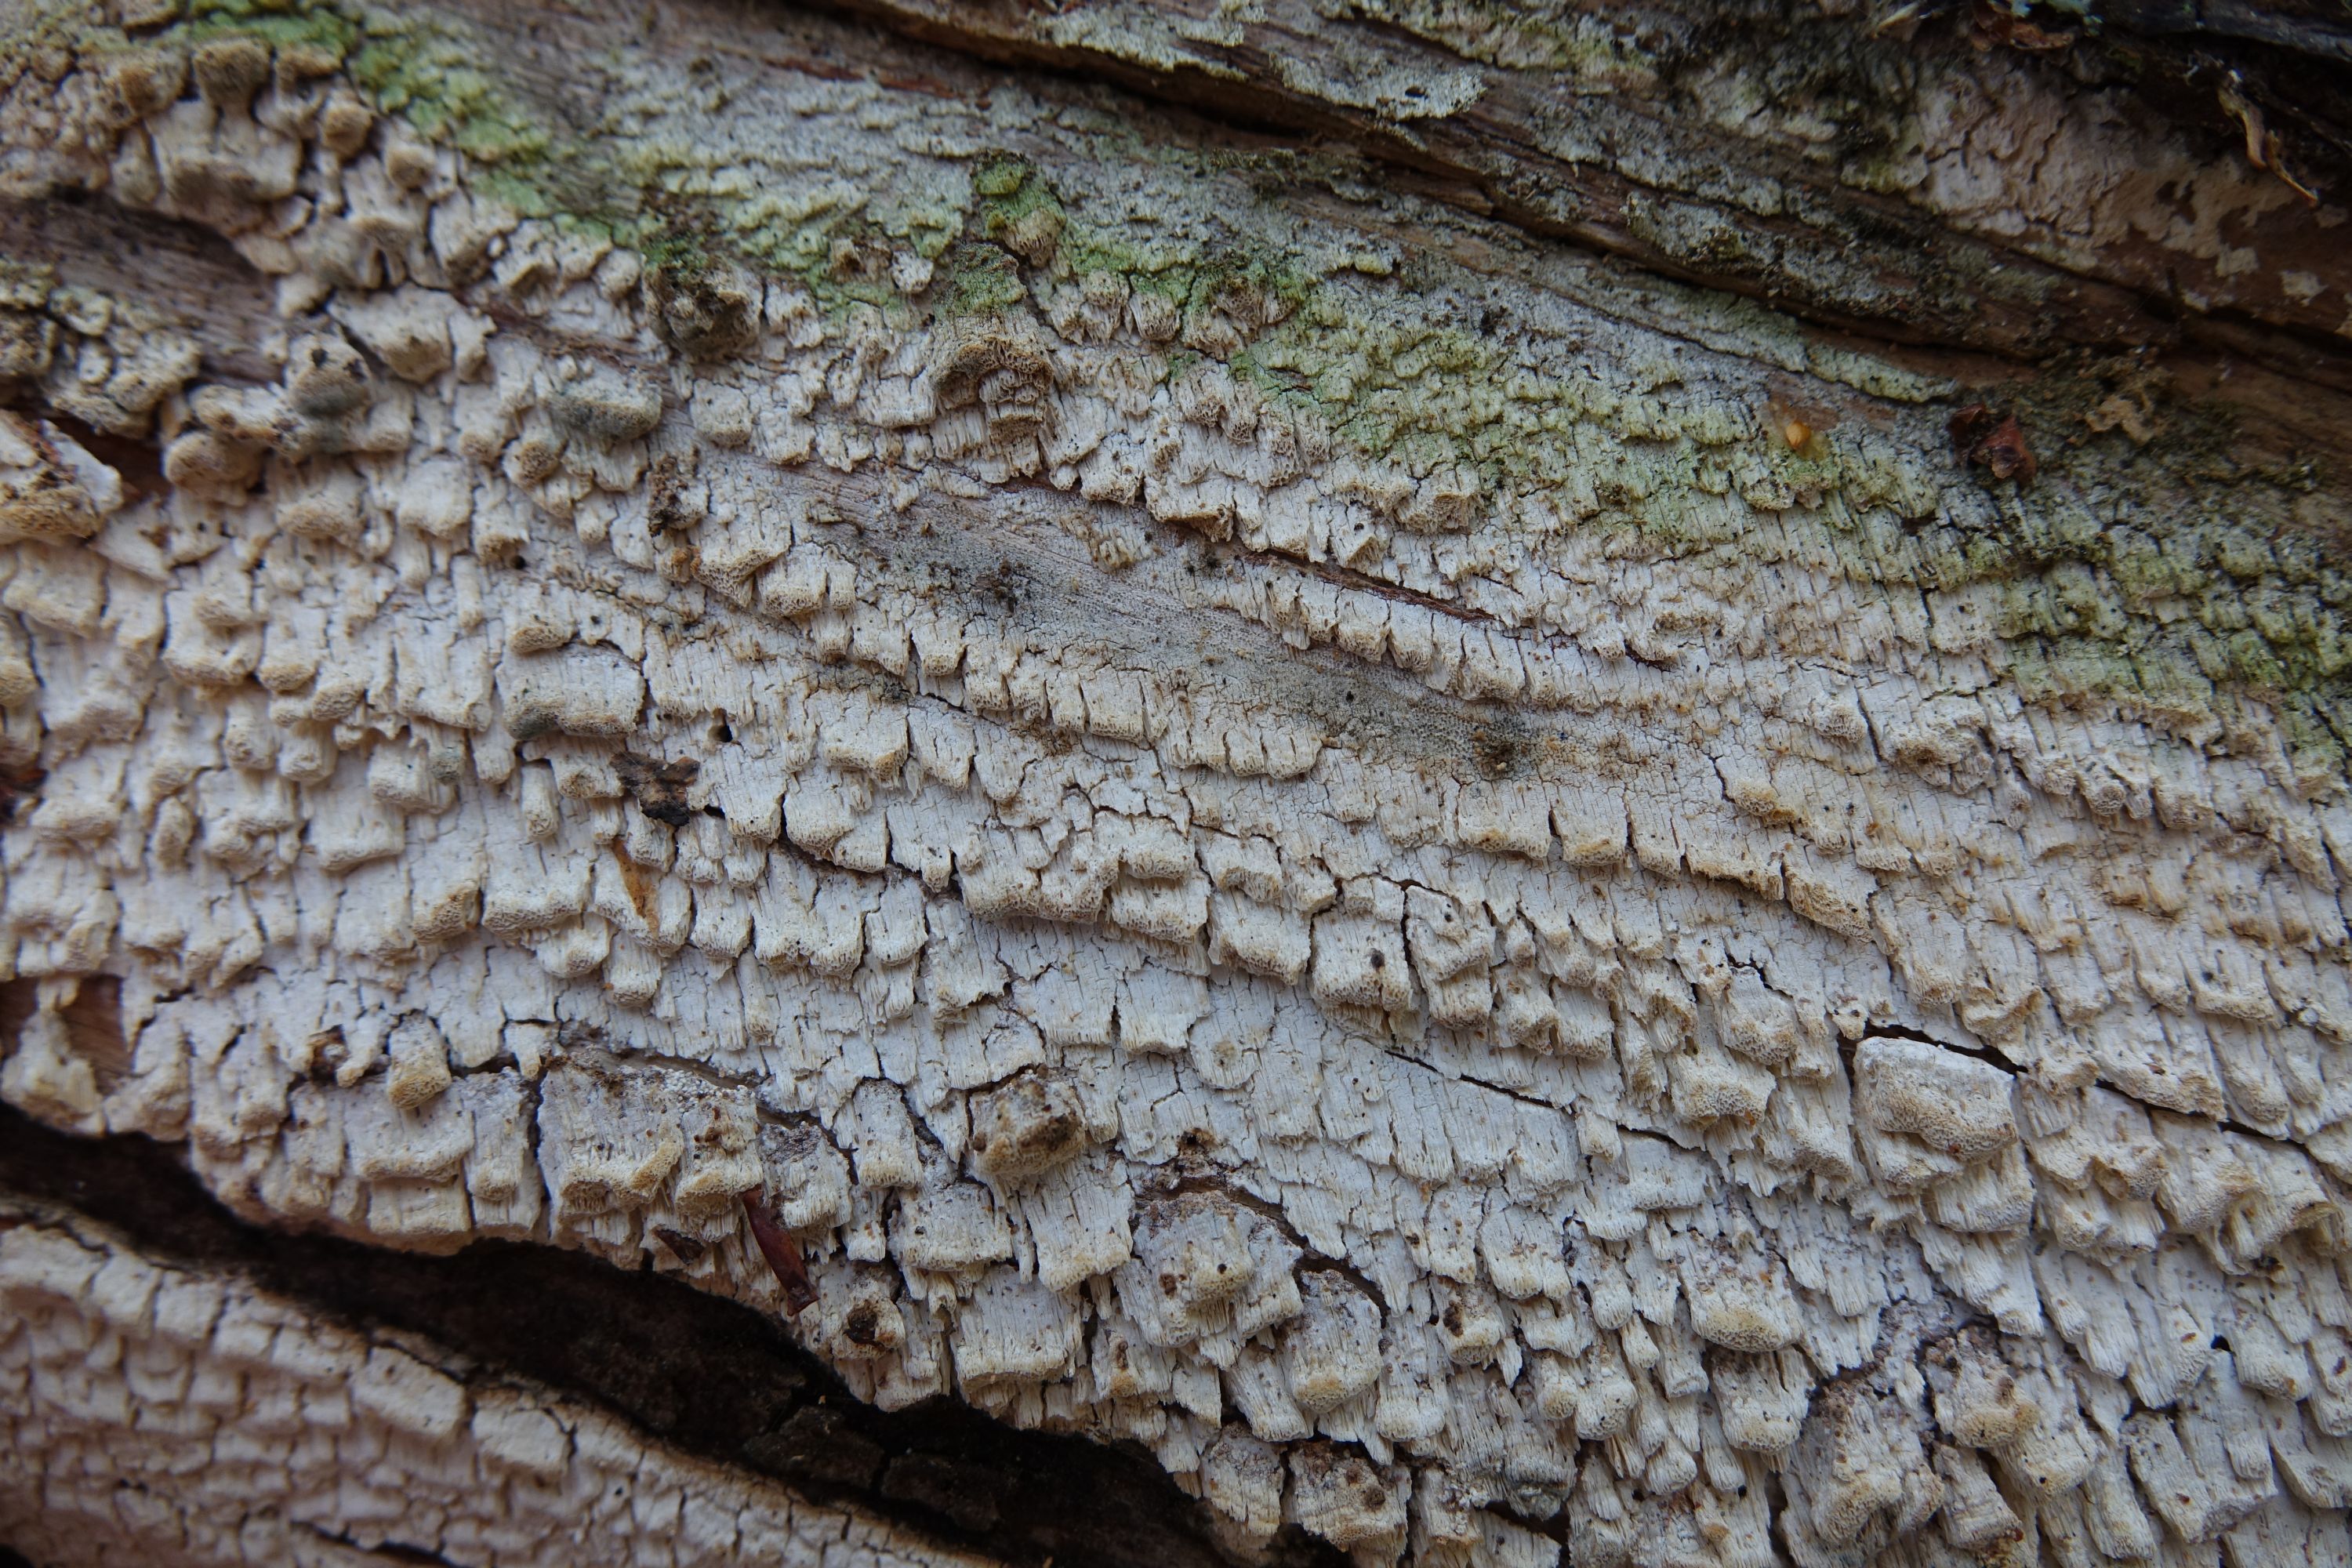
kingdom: Fungi
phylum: Basidiomycota
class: Agaricomycetes
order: Polyporales
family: Fomitopsidaceae
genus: Daedalea
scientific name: Daedalea xantha
